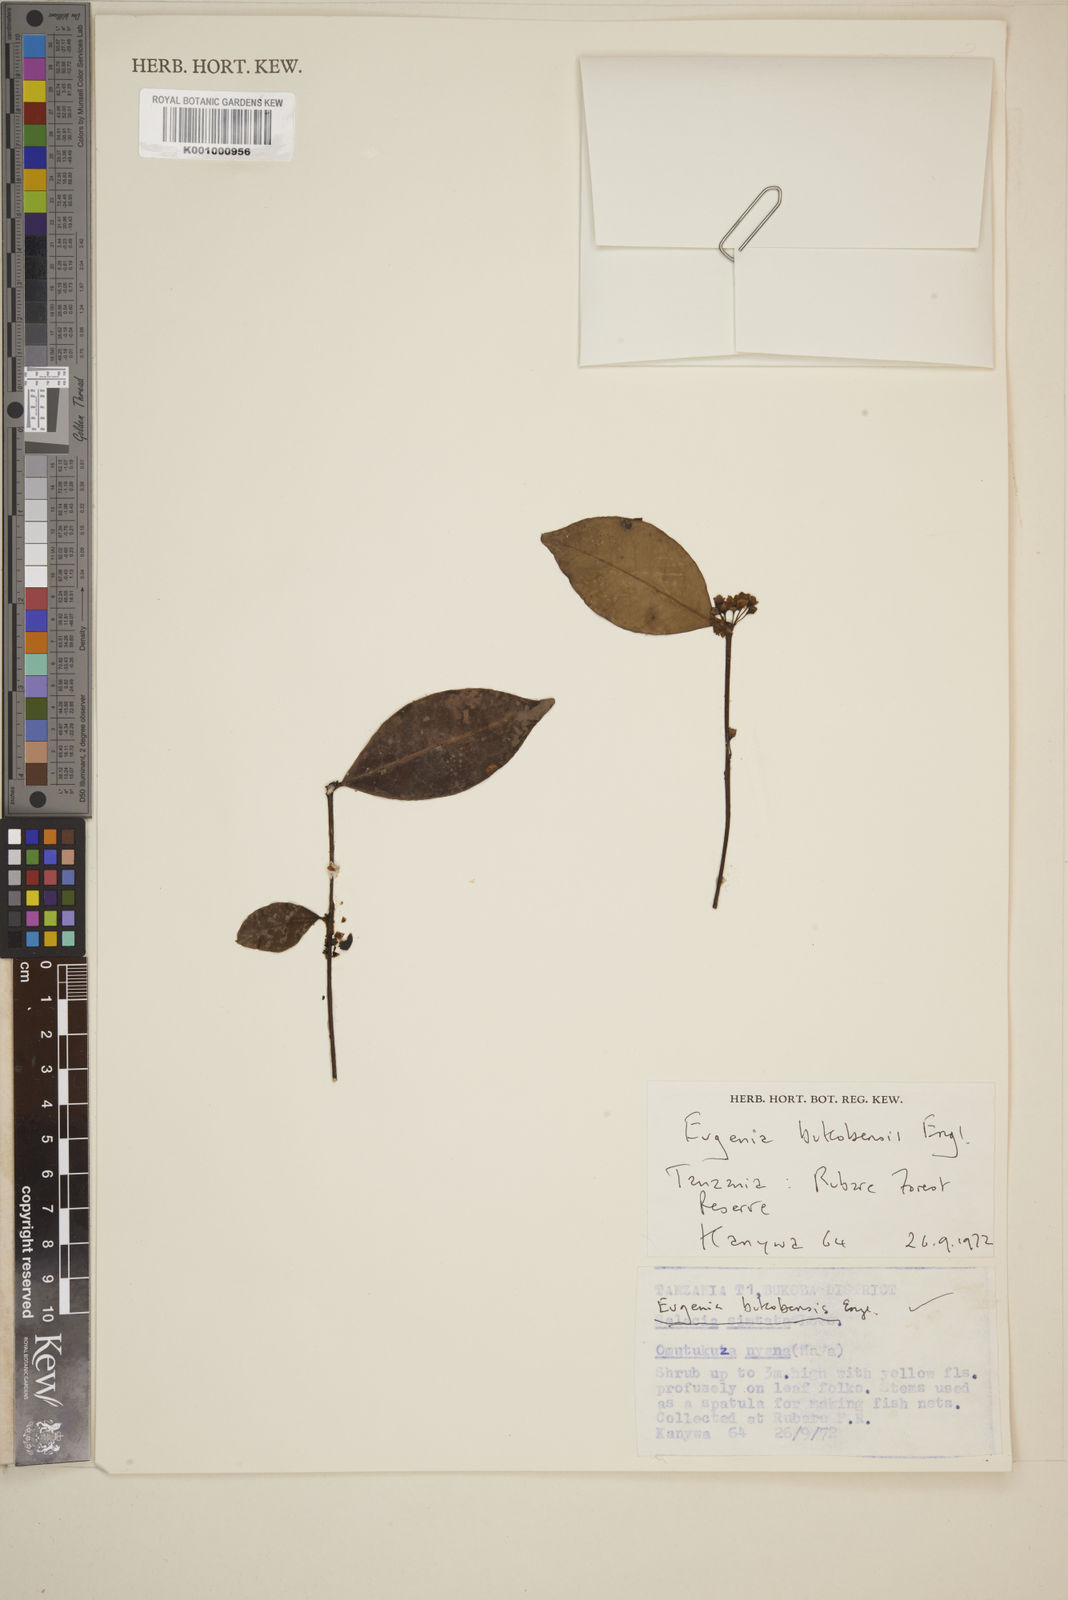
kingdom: Plantae
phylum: Tracheophyta
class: Magnoliopsida
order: Myrtales
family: Myrtaceae
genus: Eugenia
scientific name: Eugenia bukobensis
